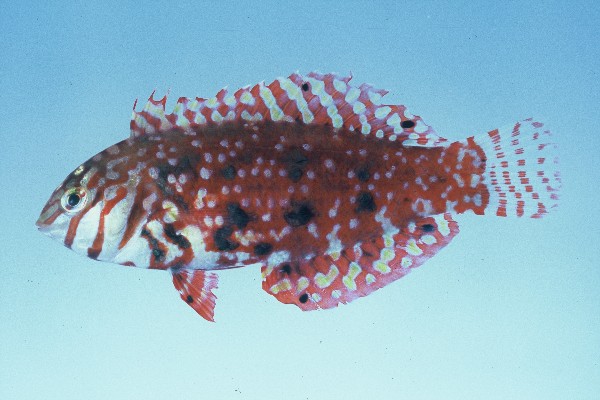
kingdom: Animalia
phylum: Chordata
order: Perciformes
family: Labridae
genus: Halichoeres
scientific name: Halichoeres lapillus
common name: Jewelled wrasse
